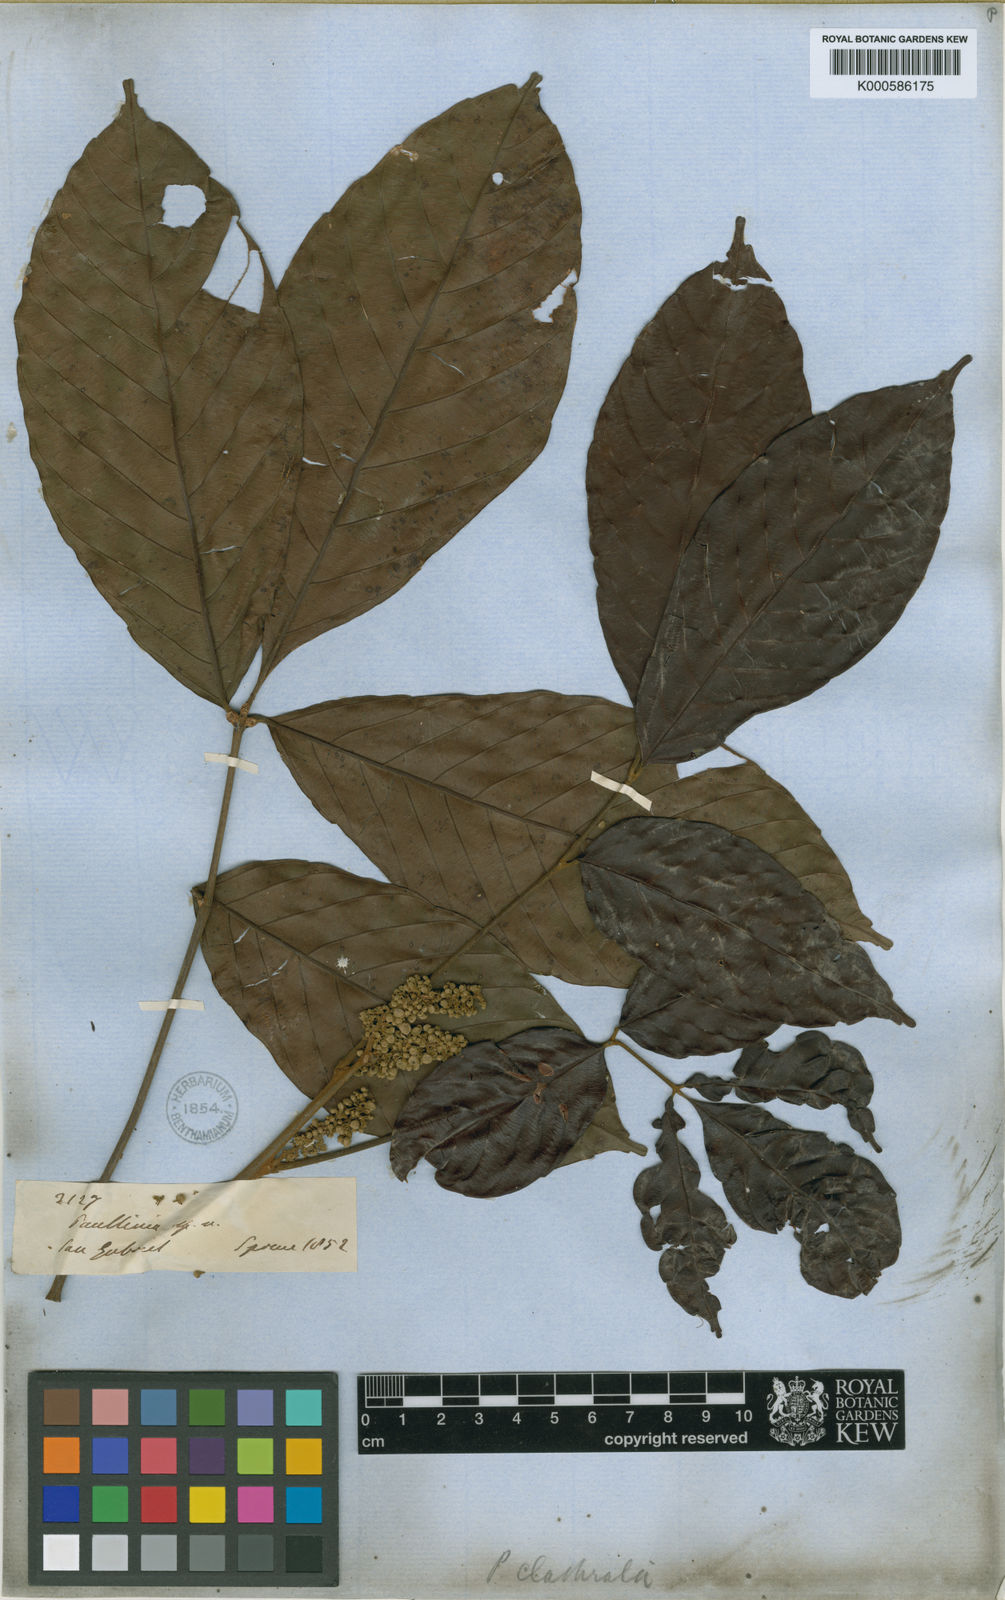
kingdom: Plantae
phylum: Tracheophyta
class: Magnoliopsida
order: Sapindales
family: Sapindaceae
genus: Paullinia
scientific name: Paullinia capreolata
